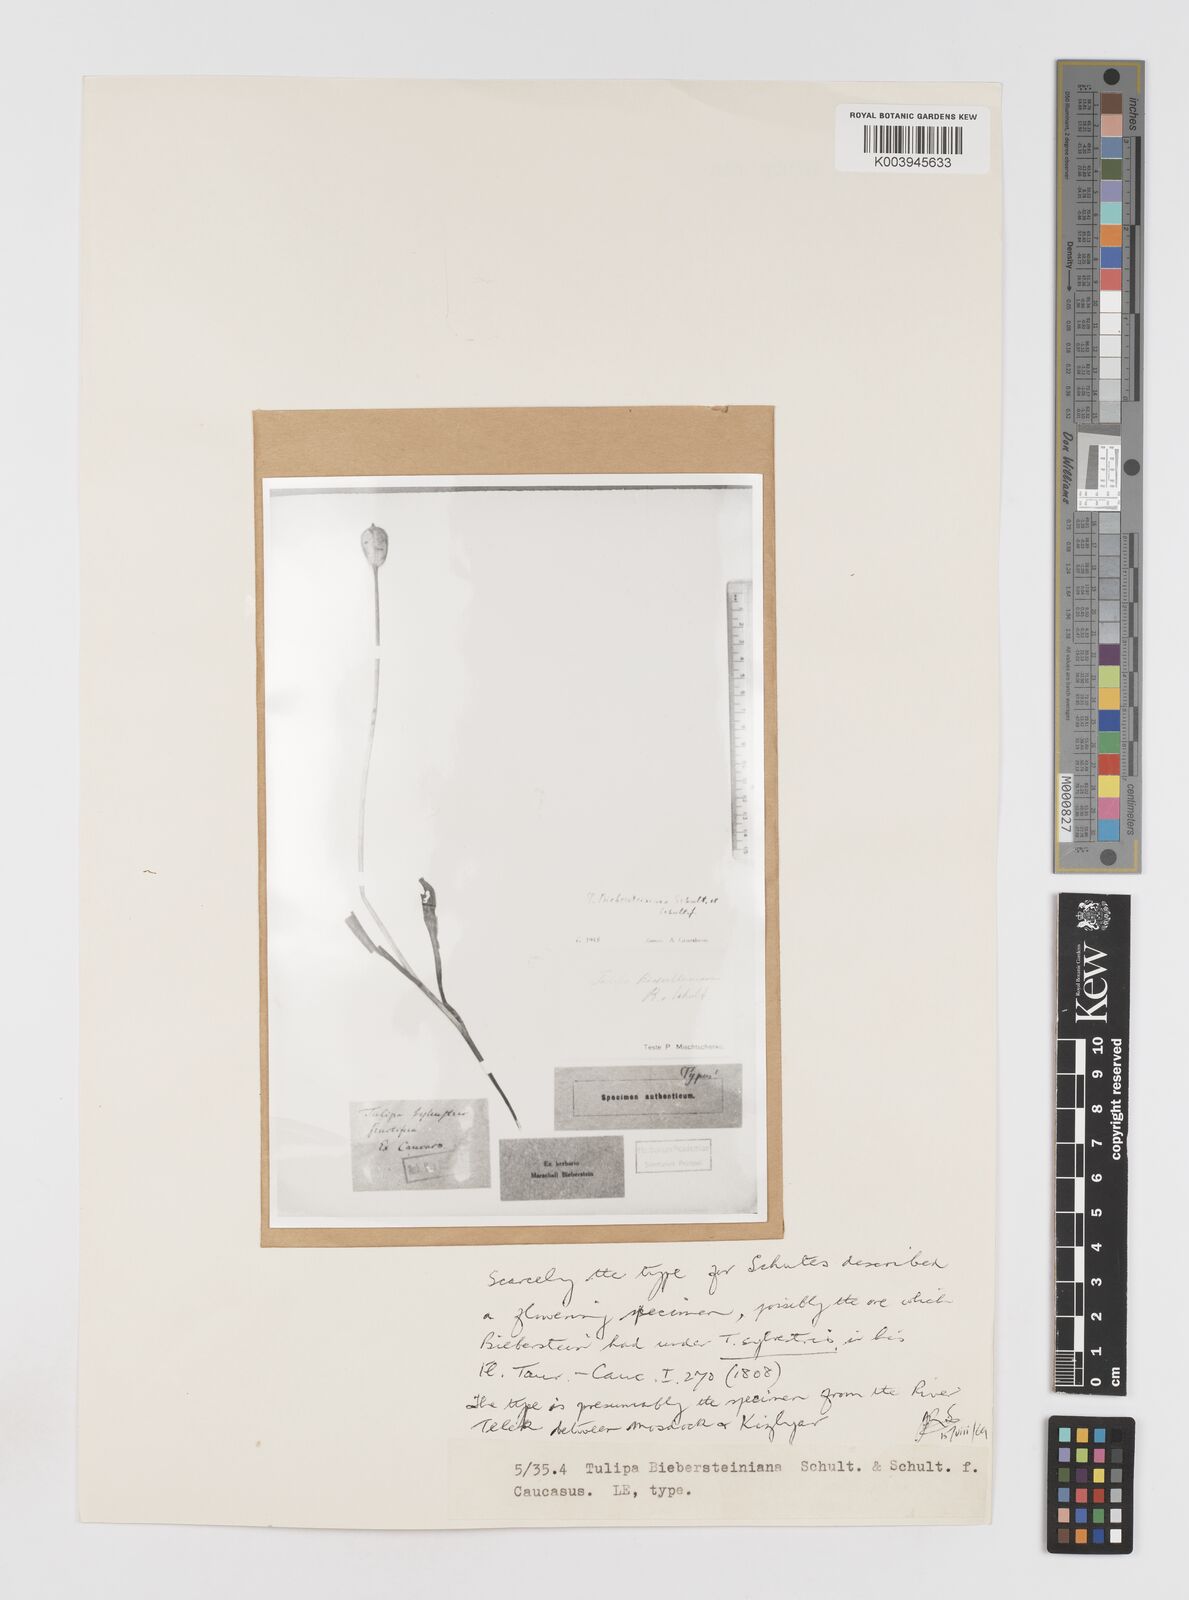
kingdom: Plantae
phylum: Tracheophyta
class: Liliopsida
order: Liliales
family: Liliaceae
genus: Tulipa
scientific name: Tulipa sylvestris
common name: Wild tulip
